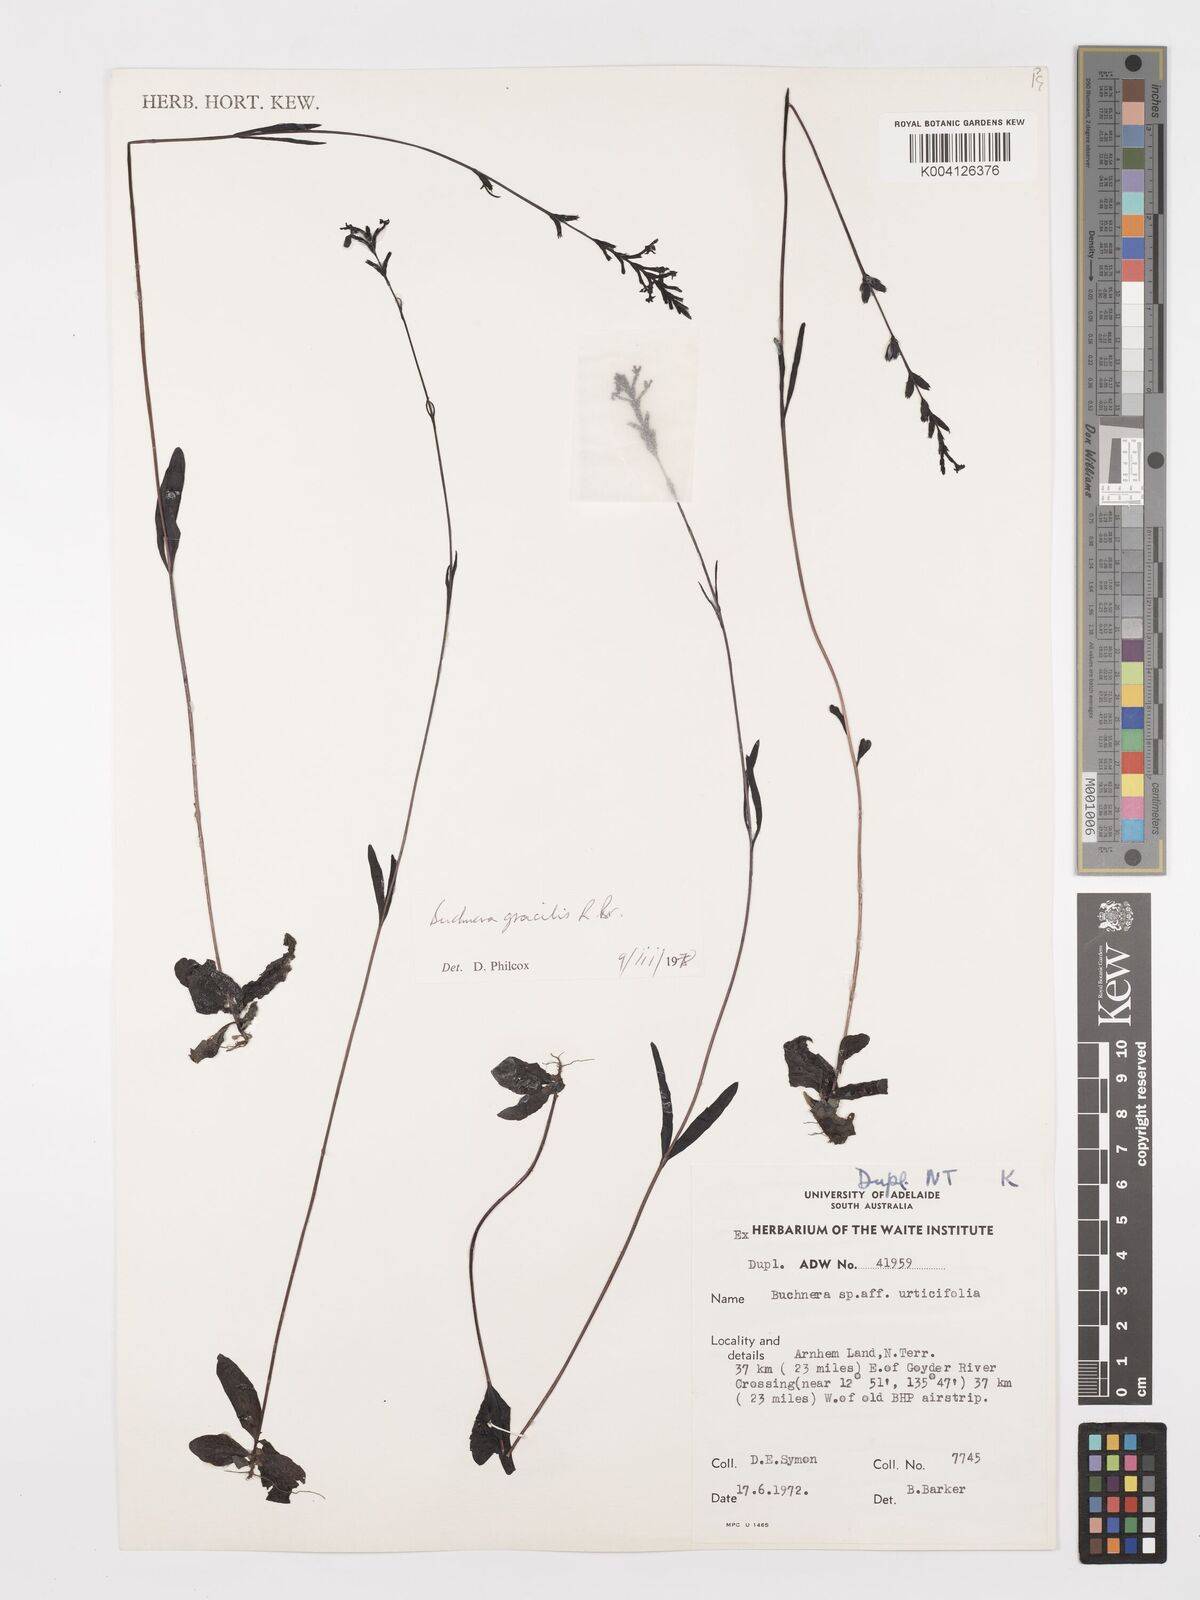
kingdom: Plantae
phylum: Tracheophyta
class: Magnoliopsida
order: Lamiales
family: Orobanchaceae
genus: Buchnera
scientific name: Buchnera gracilis
